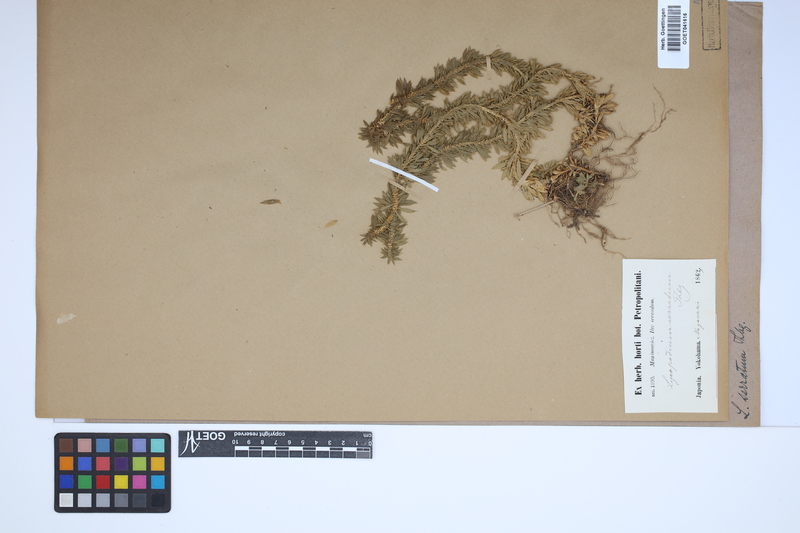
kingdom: Plantae
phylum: Tracheophyta
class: Lycopodiopsida
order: Lycopodiales
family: Lycopodiaceae
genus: Huperzia
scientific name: Huperzia serrata
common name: Toothed club-moss
